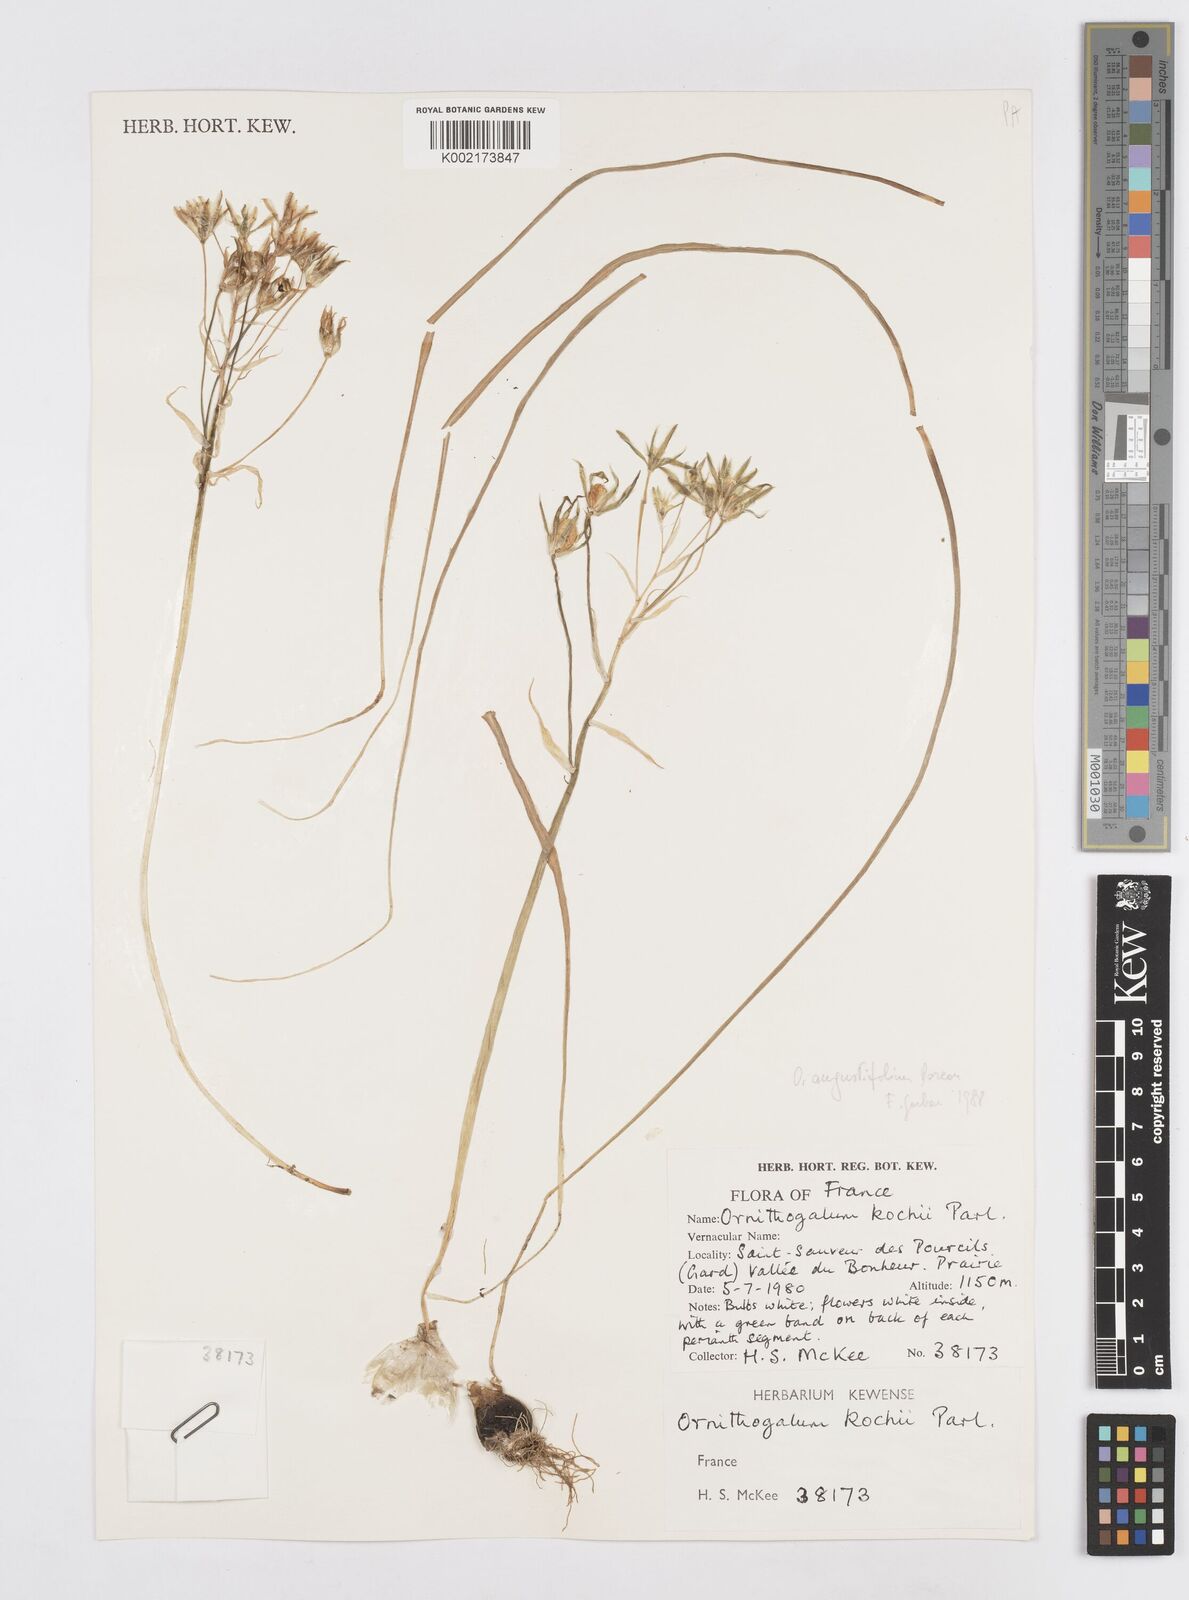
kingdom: Plantae
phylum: Tracheophyta
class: Liliopsida
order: Asparagales
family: Asparagaceae
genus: Ornithogalum
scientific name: Ornithogalum orthophyllum
